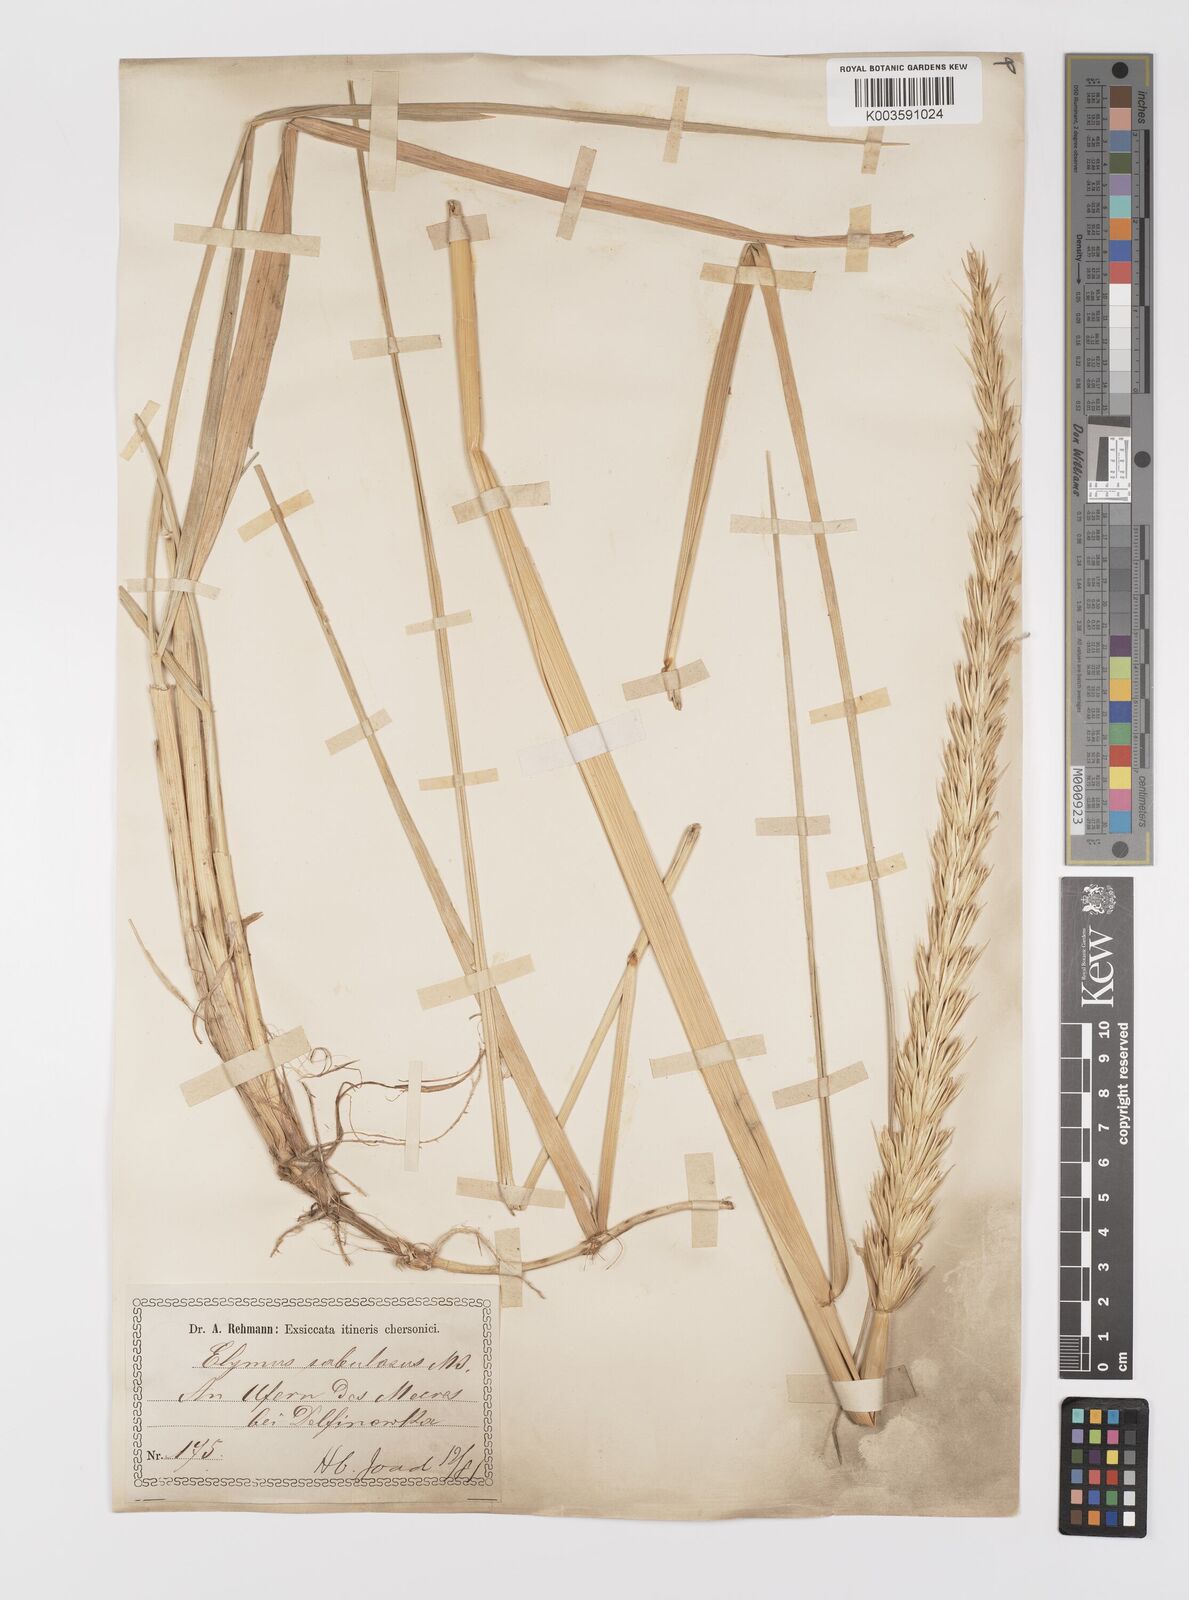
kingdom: Plantae
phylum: Tracheophyta
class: Liliopsida
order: Poales
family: Poaceae
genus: Leymus
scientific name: Leymus racemosus
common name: Mammoth wildrye
